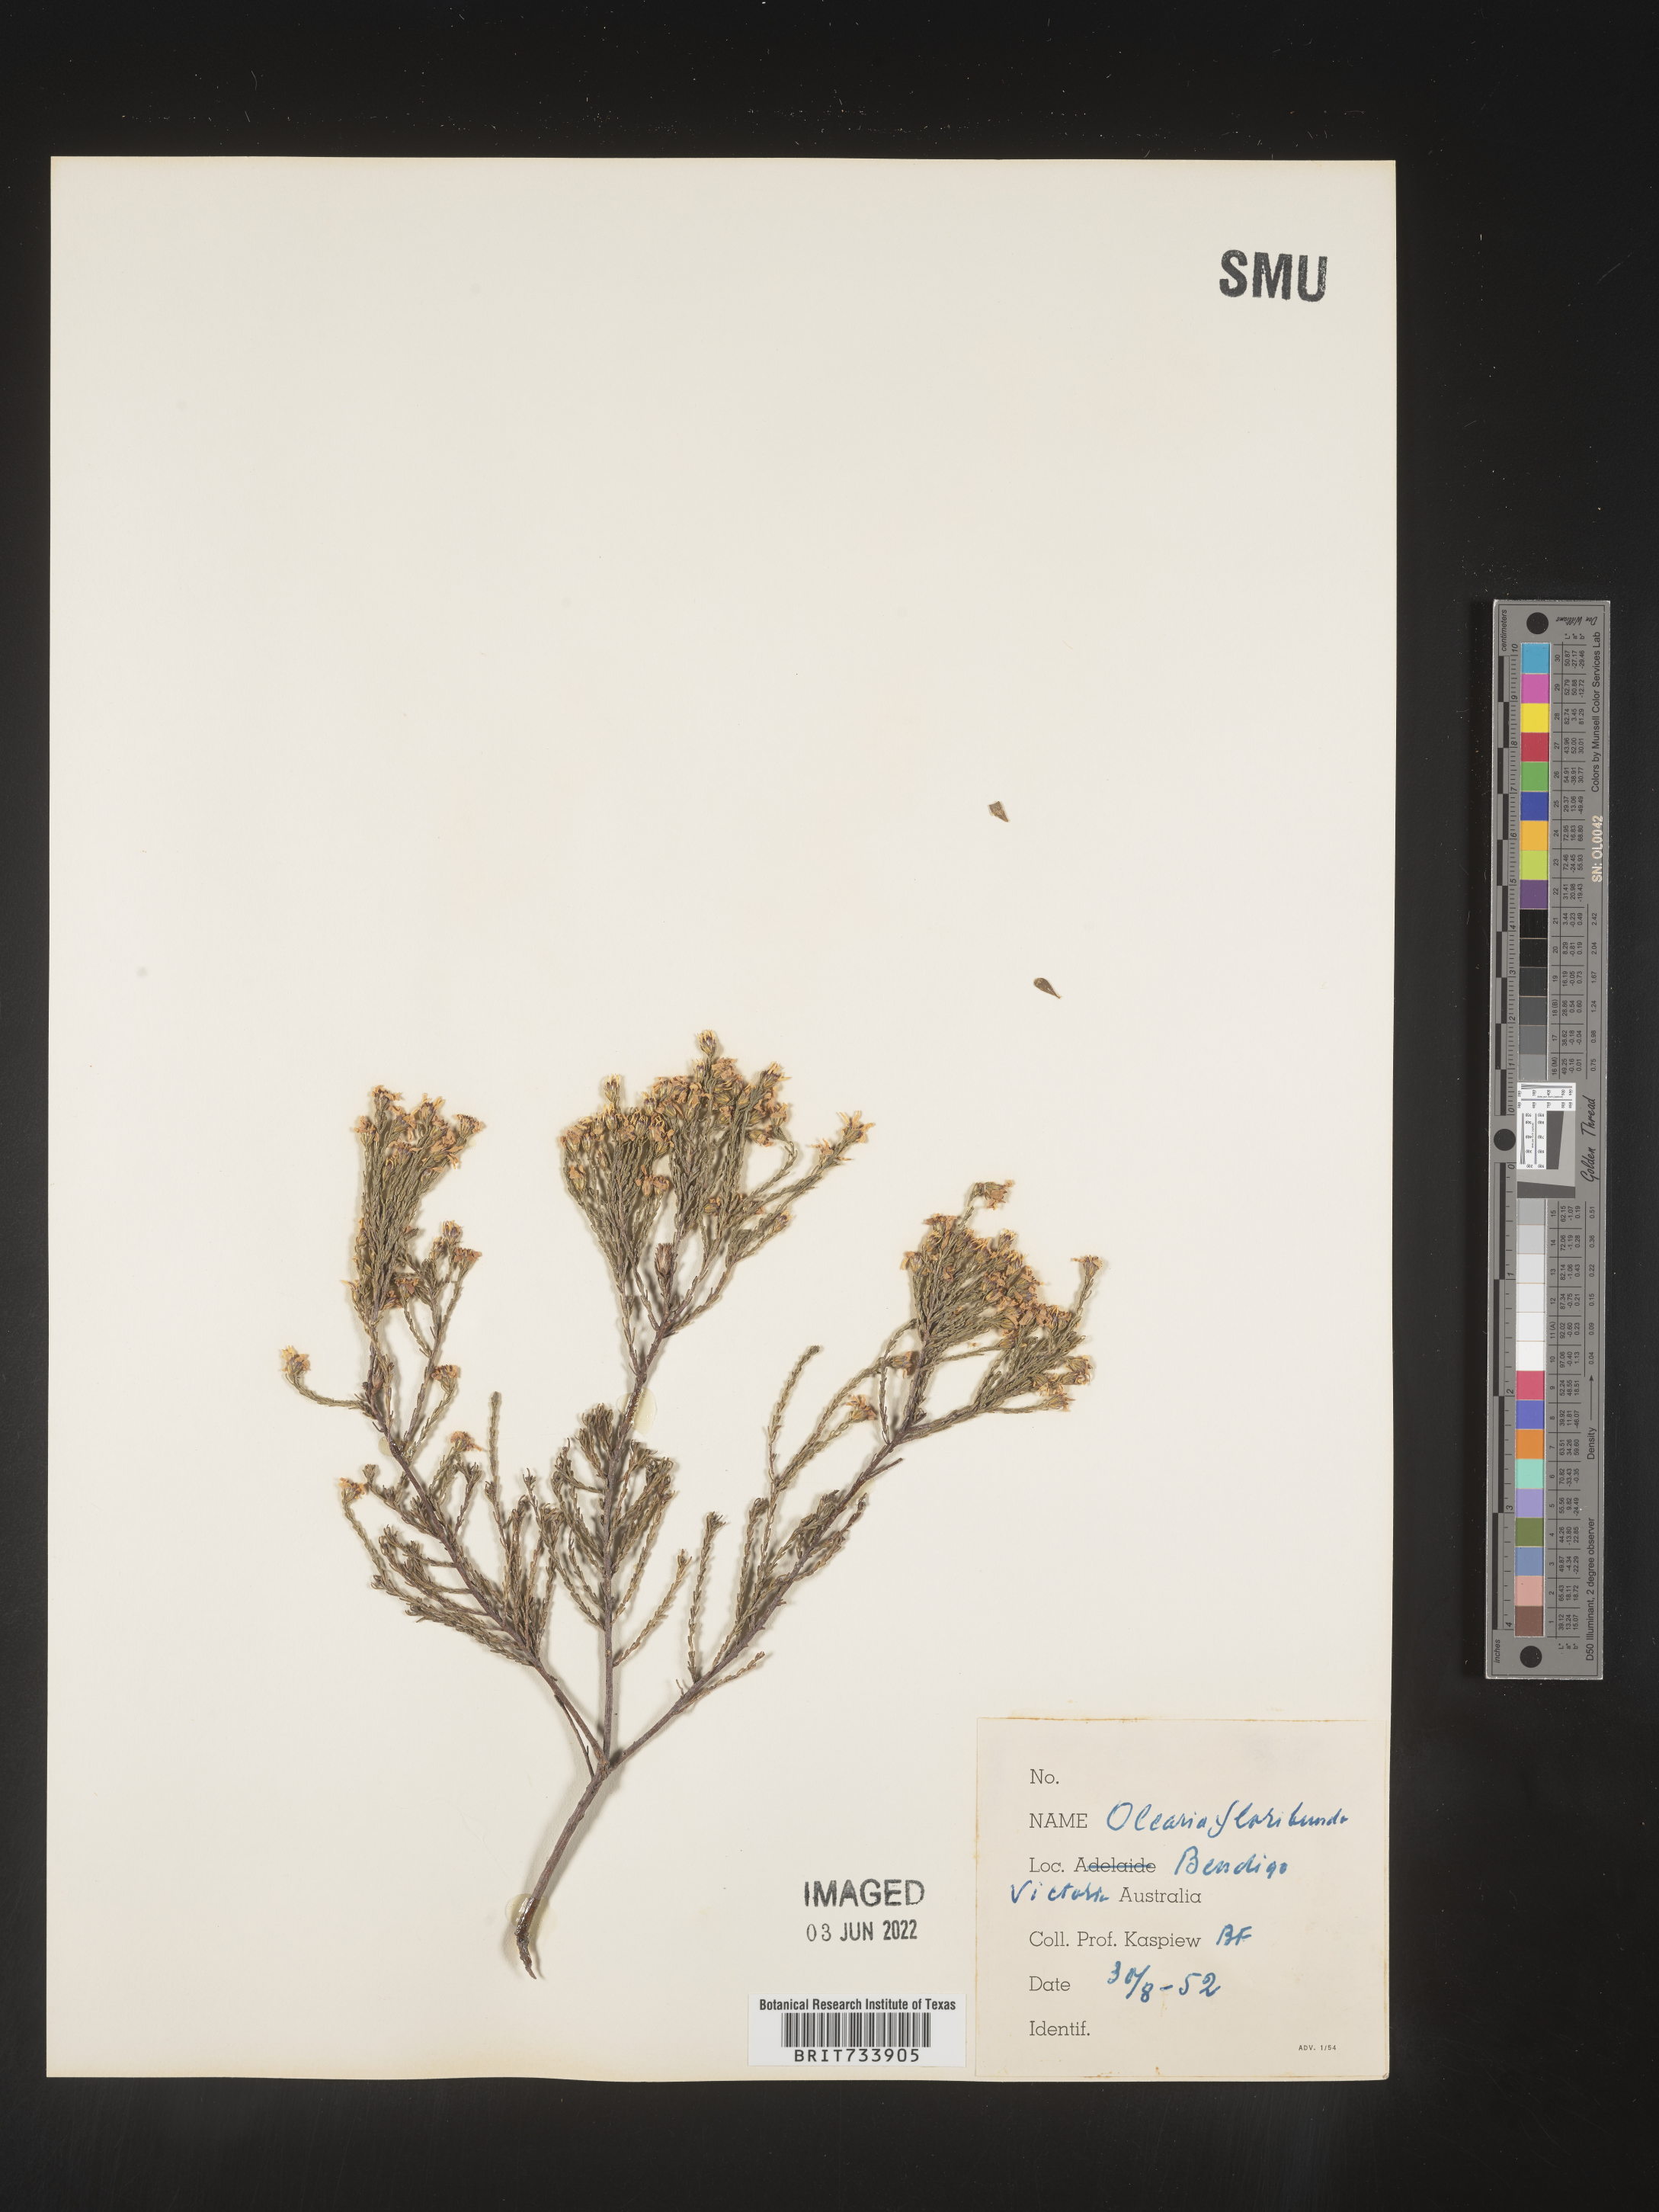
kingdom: Plantae
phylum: Tracheophyta
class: Magnoliopsida
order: Asterales
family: Asteraceae
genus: Olearia
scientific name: Olearia
